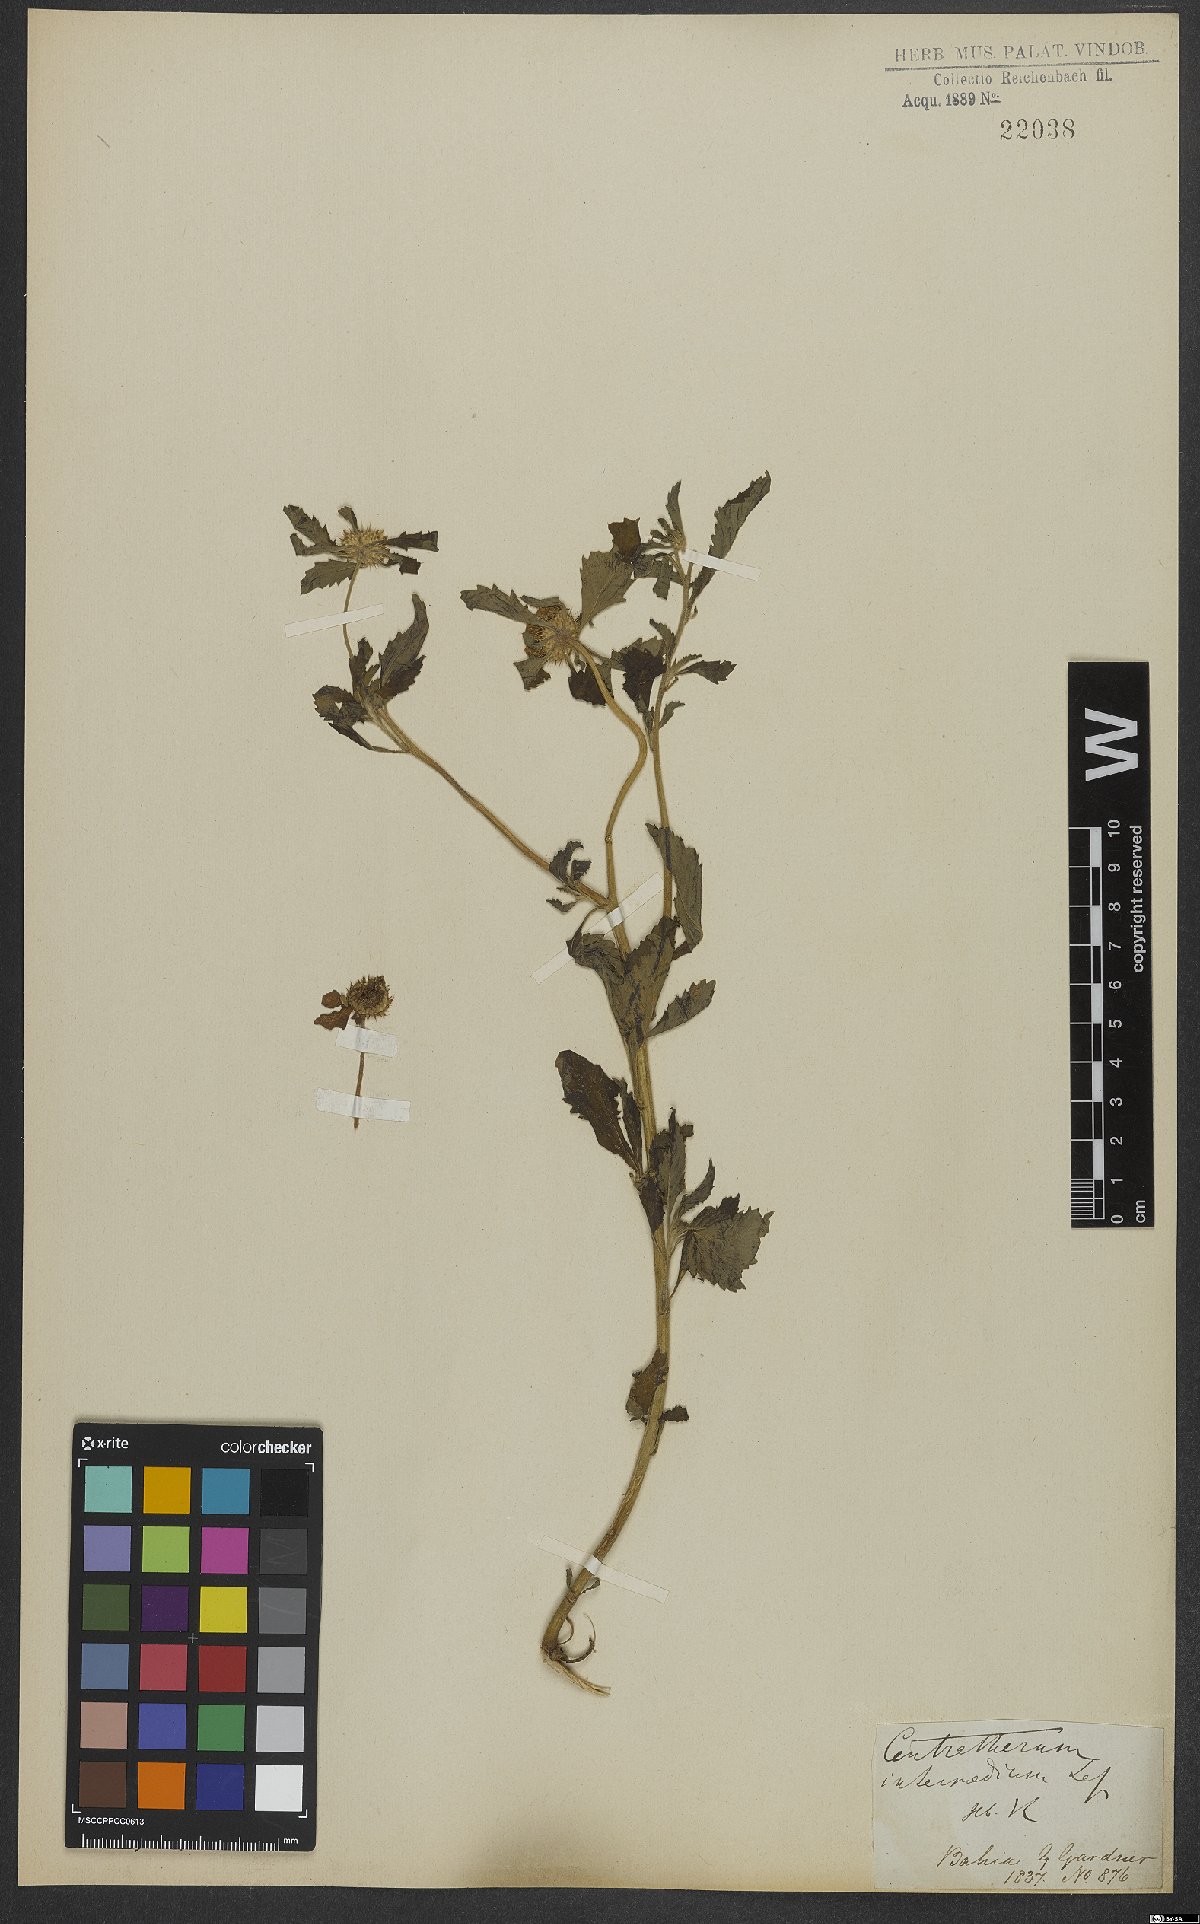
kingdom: Plantae
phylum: Tracheophyta
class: Magnoliopsida
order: Asterales
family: Asteraceae
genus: Centratherum
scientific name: Centratherum punctatum
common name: Larkdaisy
